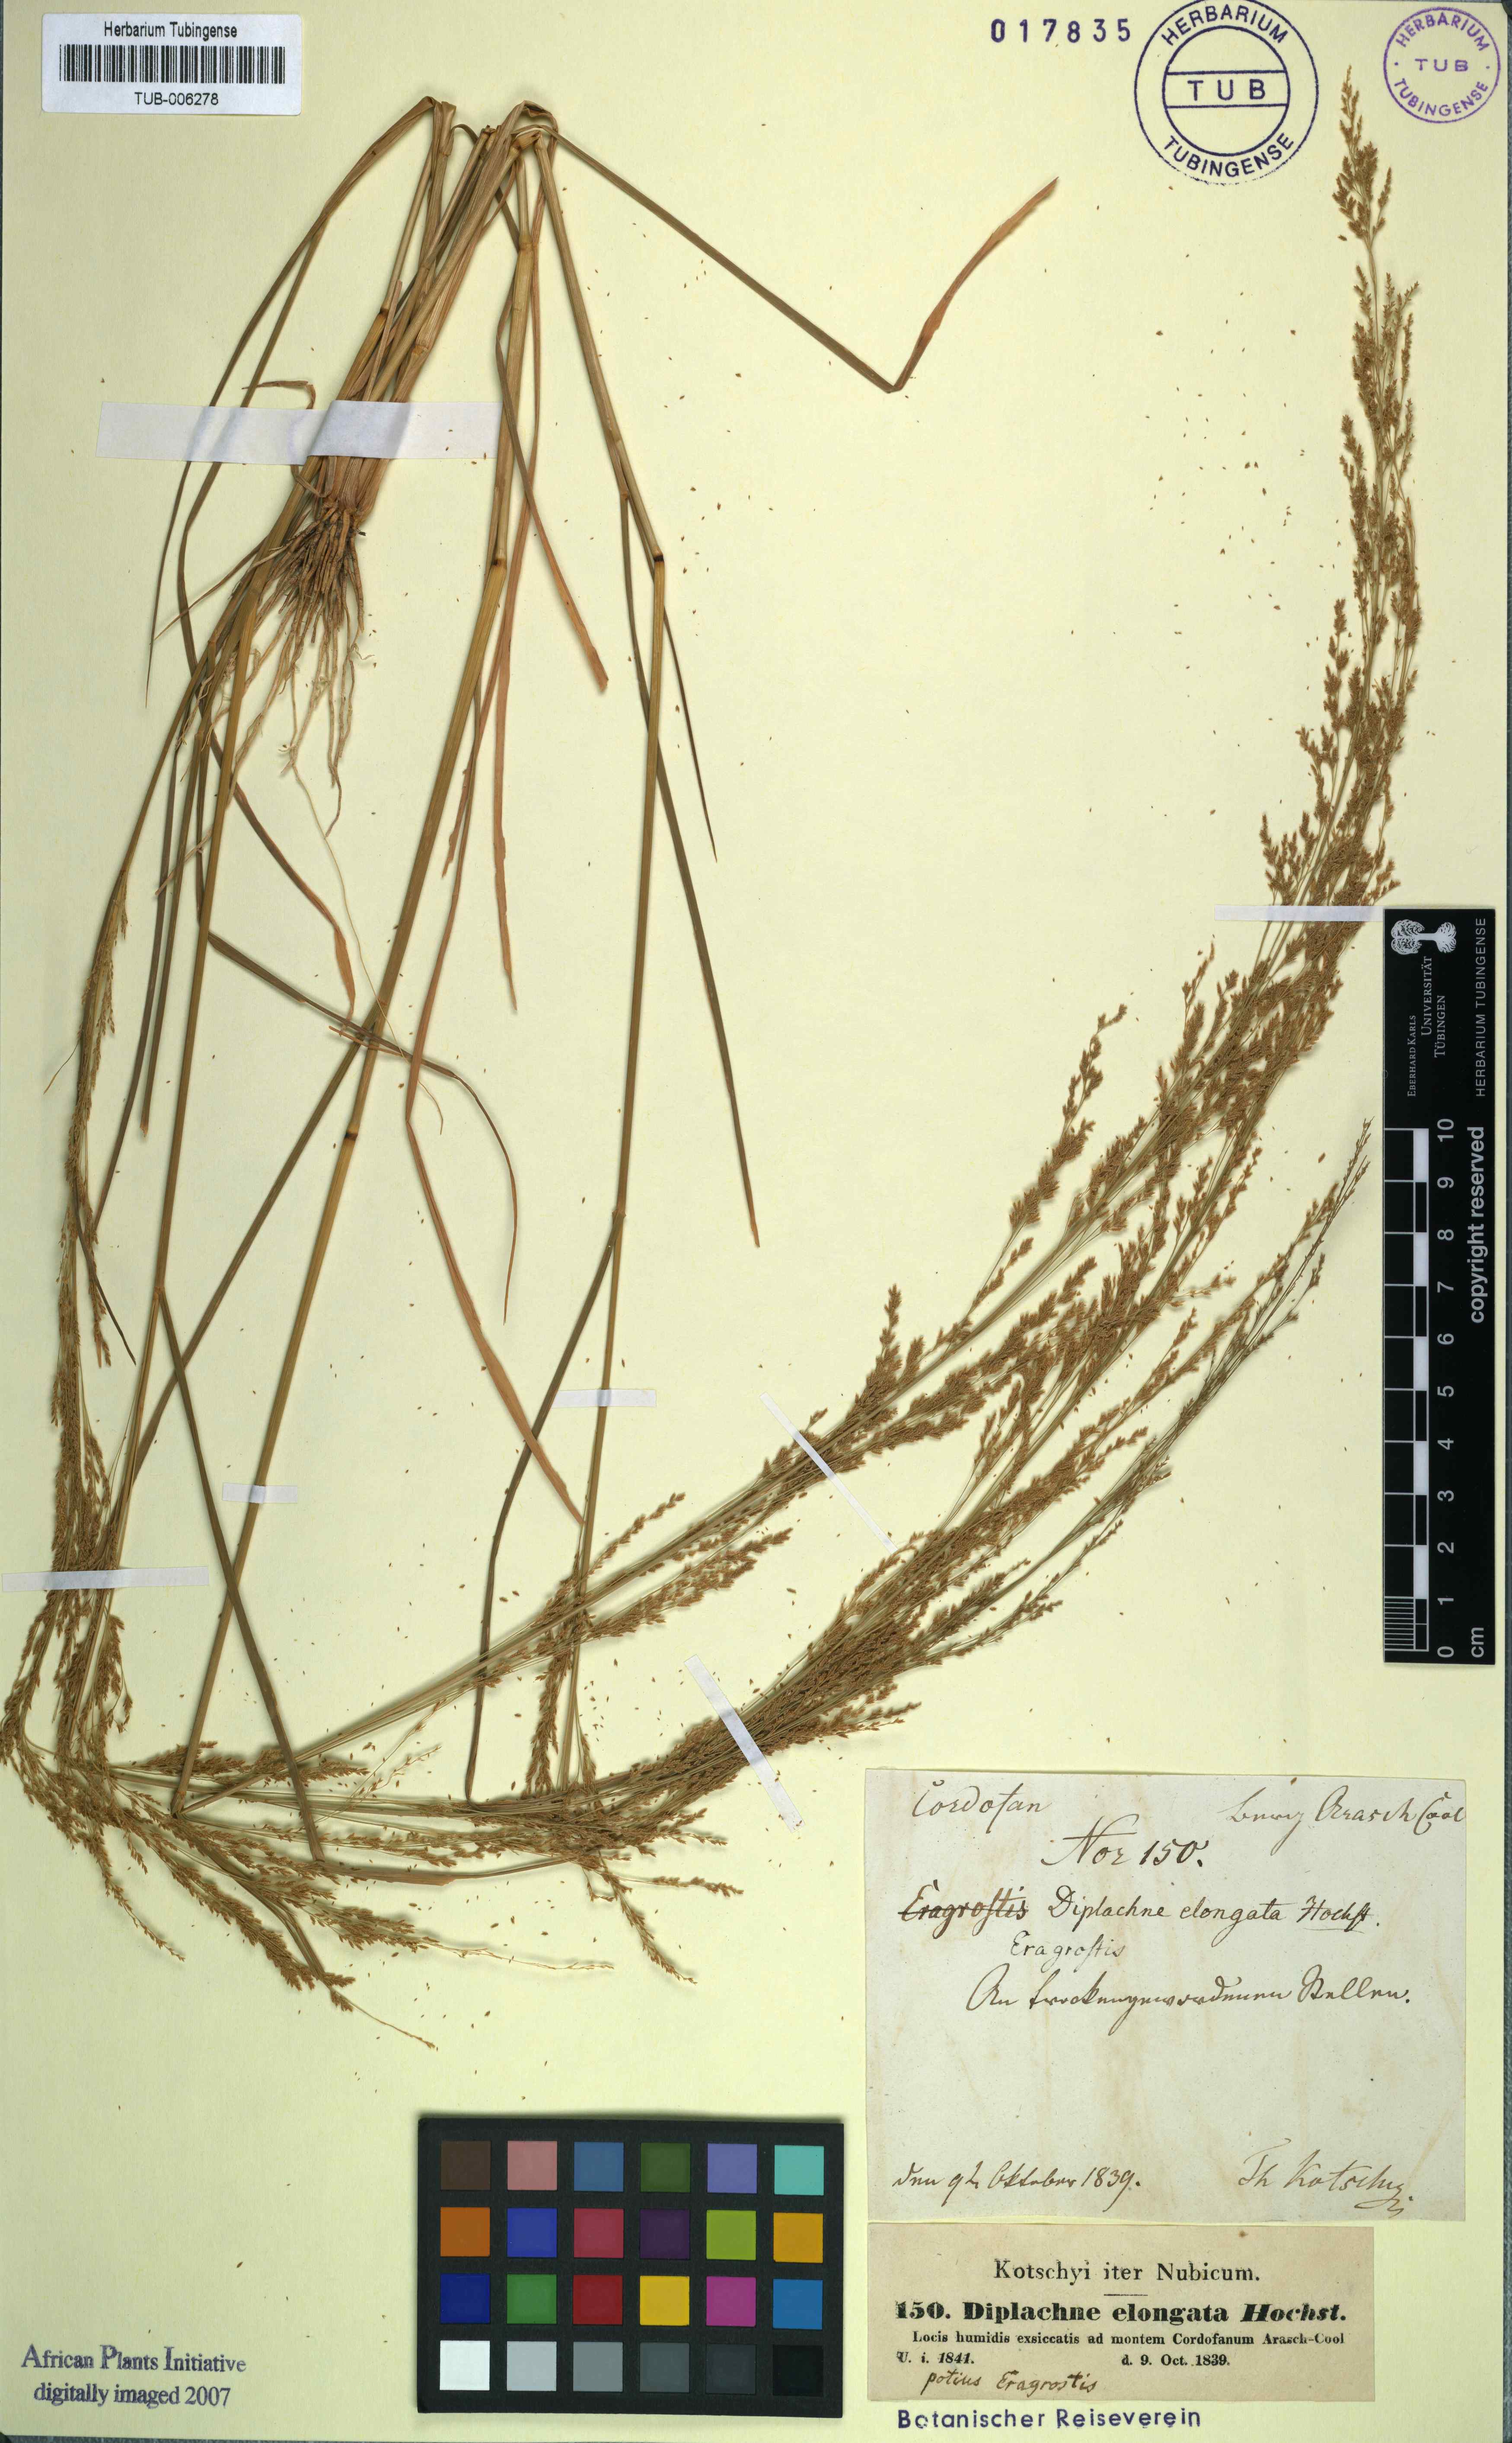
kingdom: Plantae
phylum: Tracheophyta
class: Liliopsida
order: Poales
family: Poaceae
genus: Eragrostis
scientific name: Eragrostis interrupta
